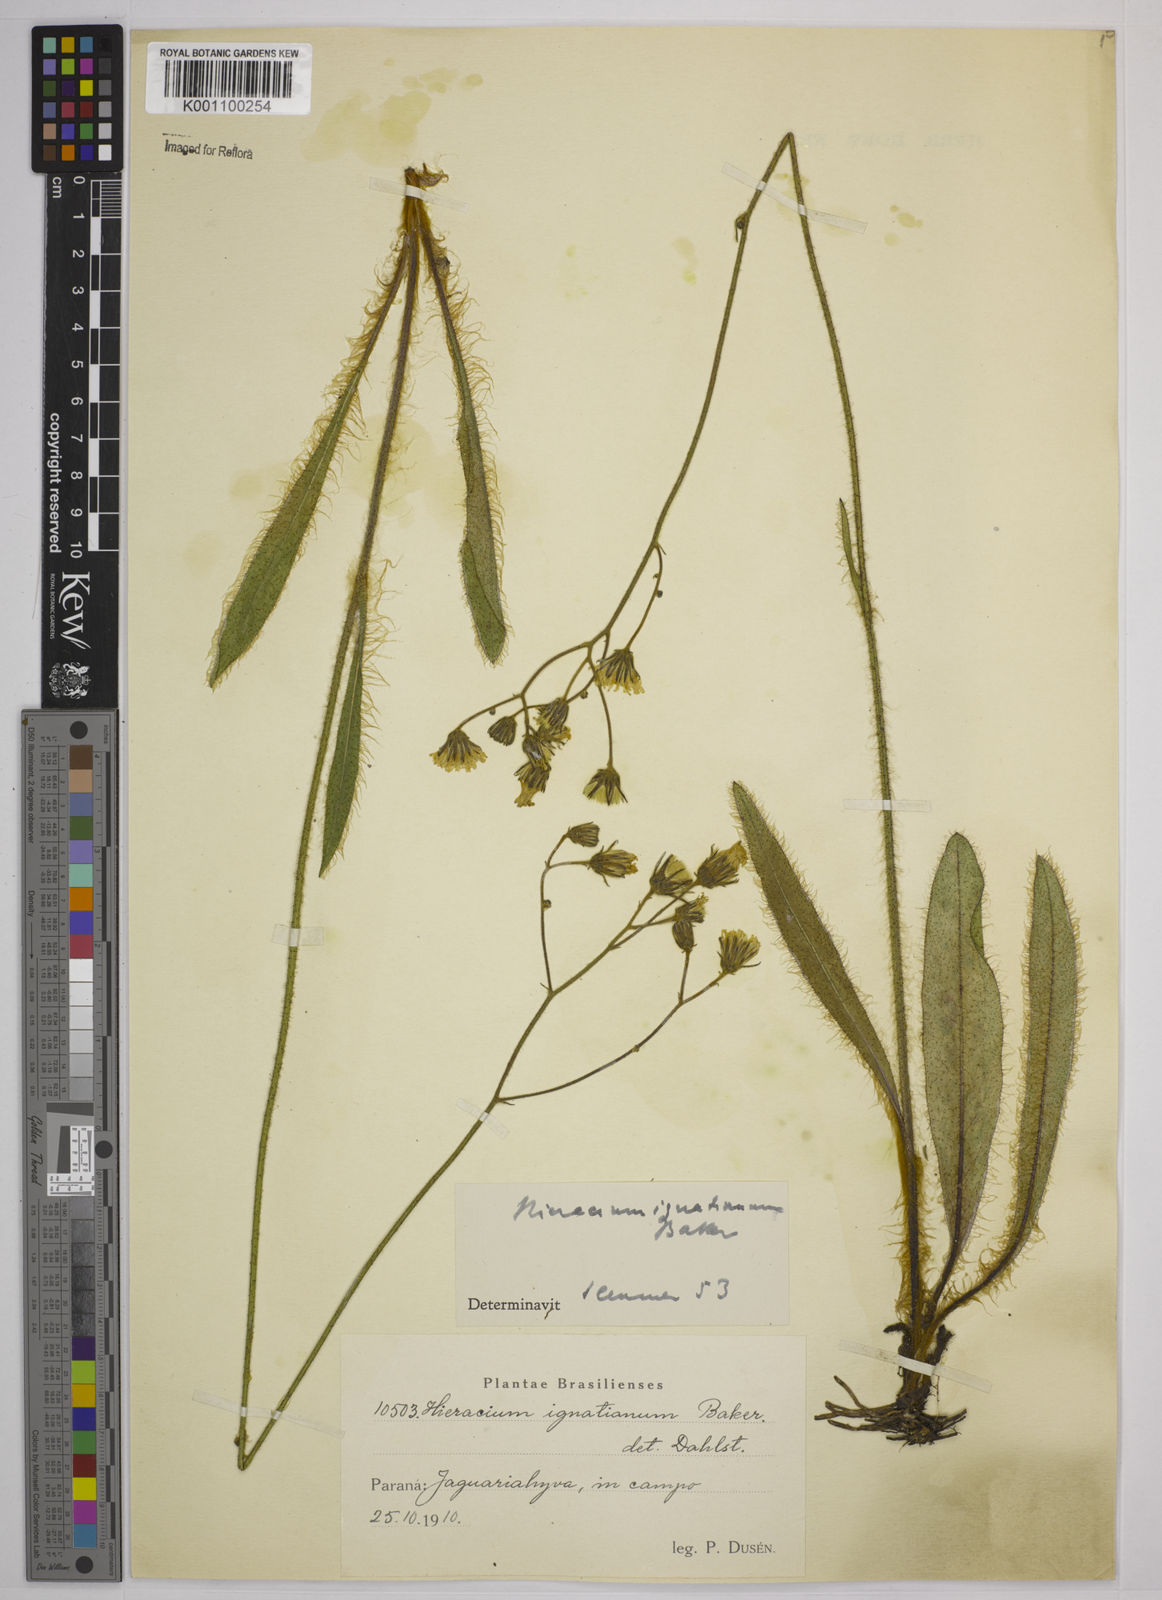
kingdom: Plantae
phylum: Tracheophyta
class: Magnoliopsida
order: Asterales
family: Asteraceae
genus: Hieracium
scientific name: Hieracium ignatianum
